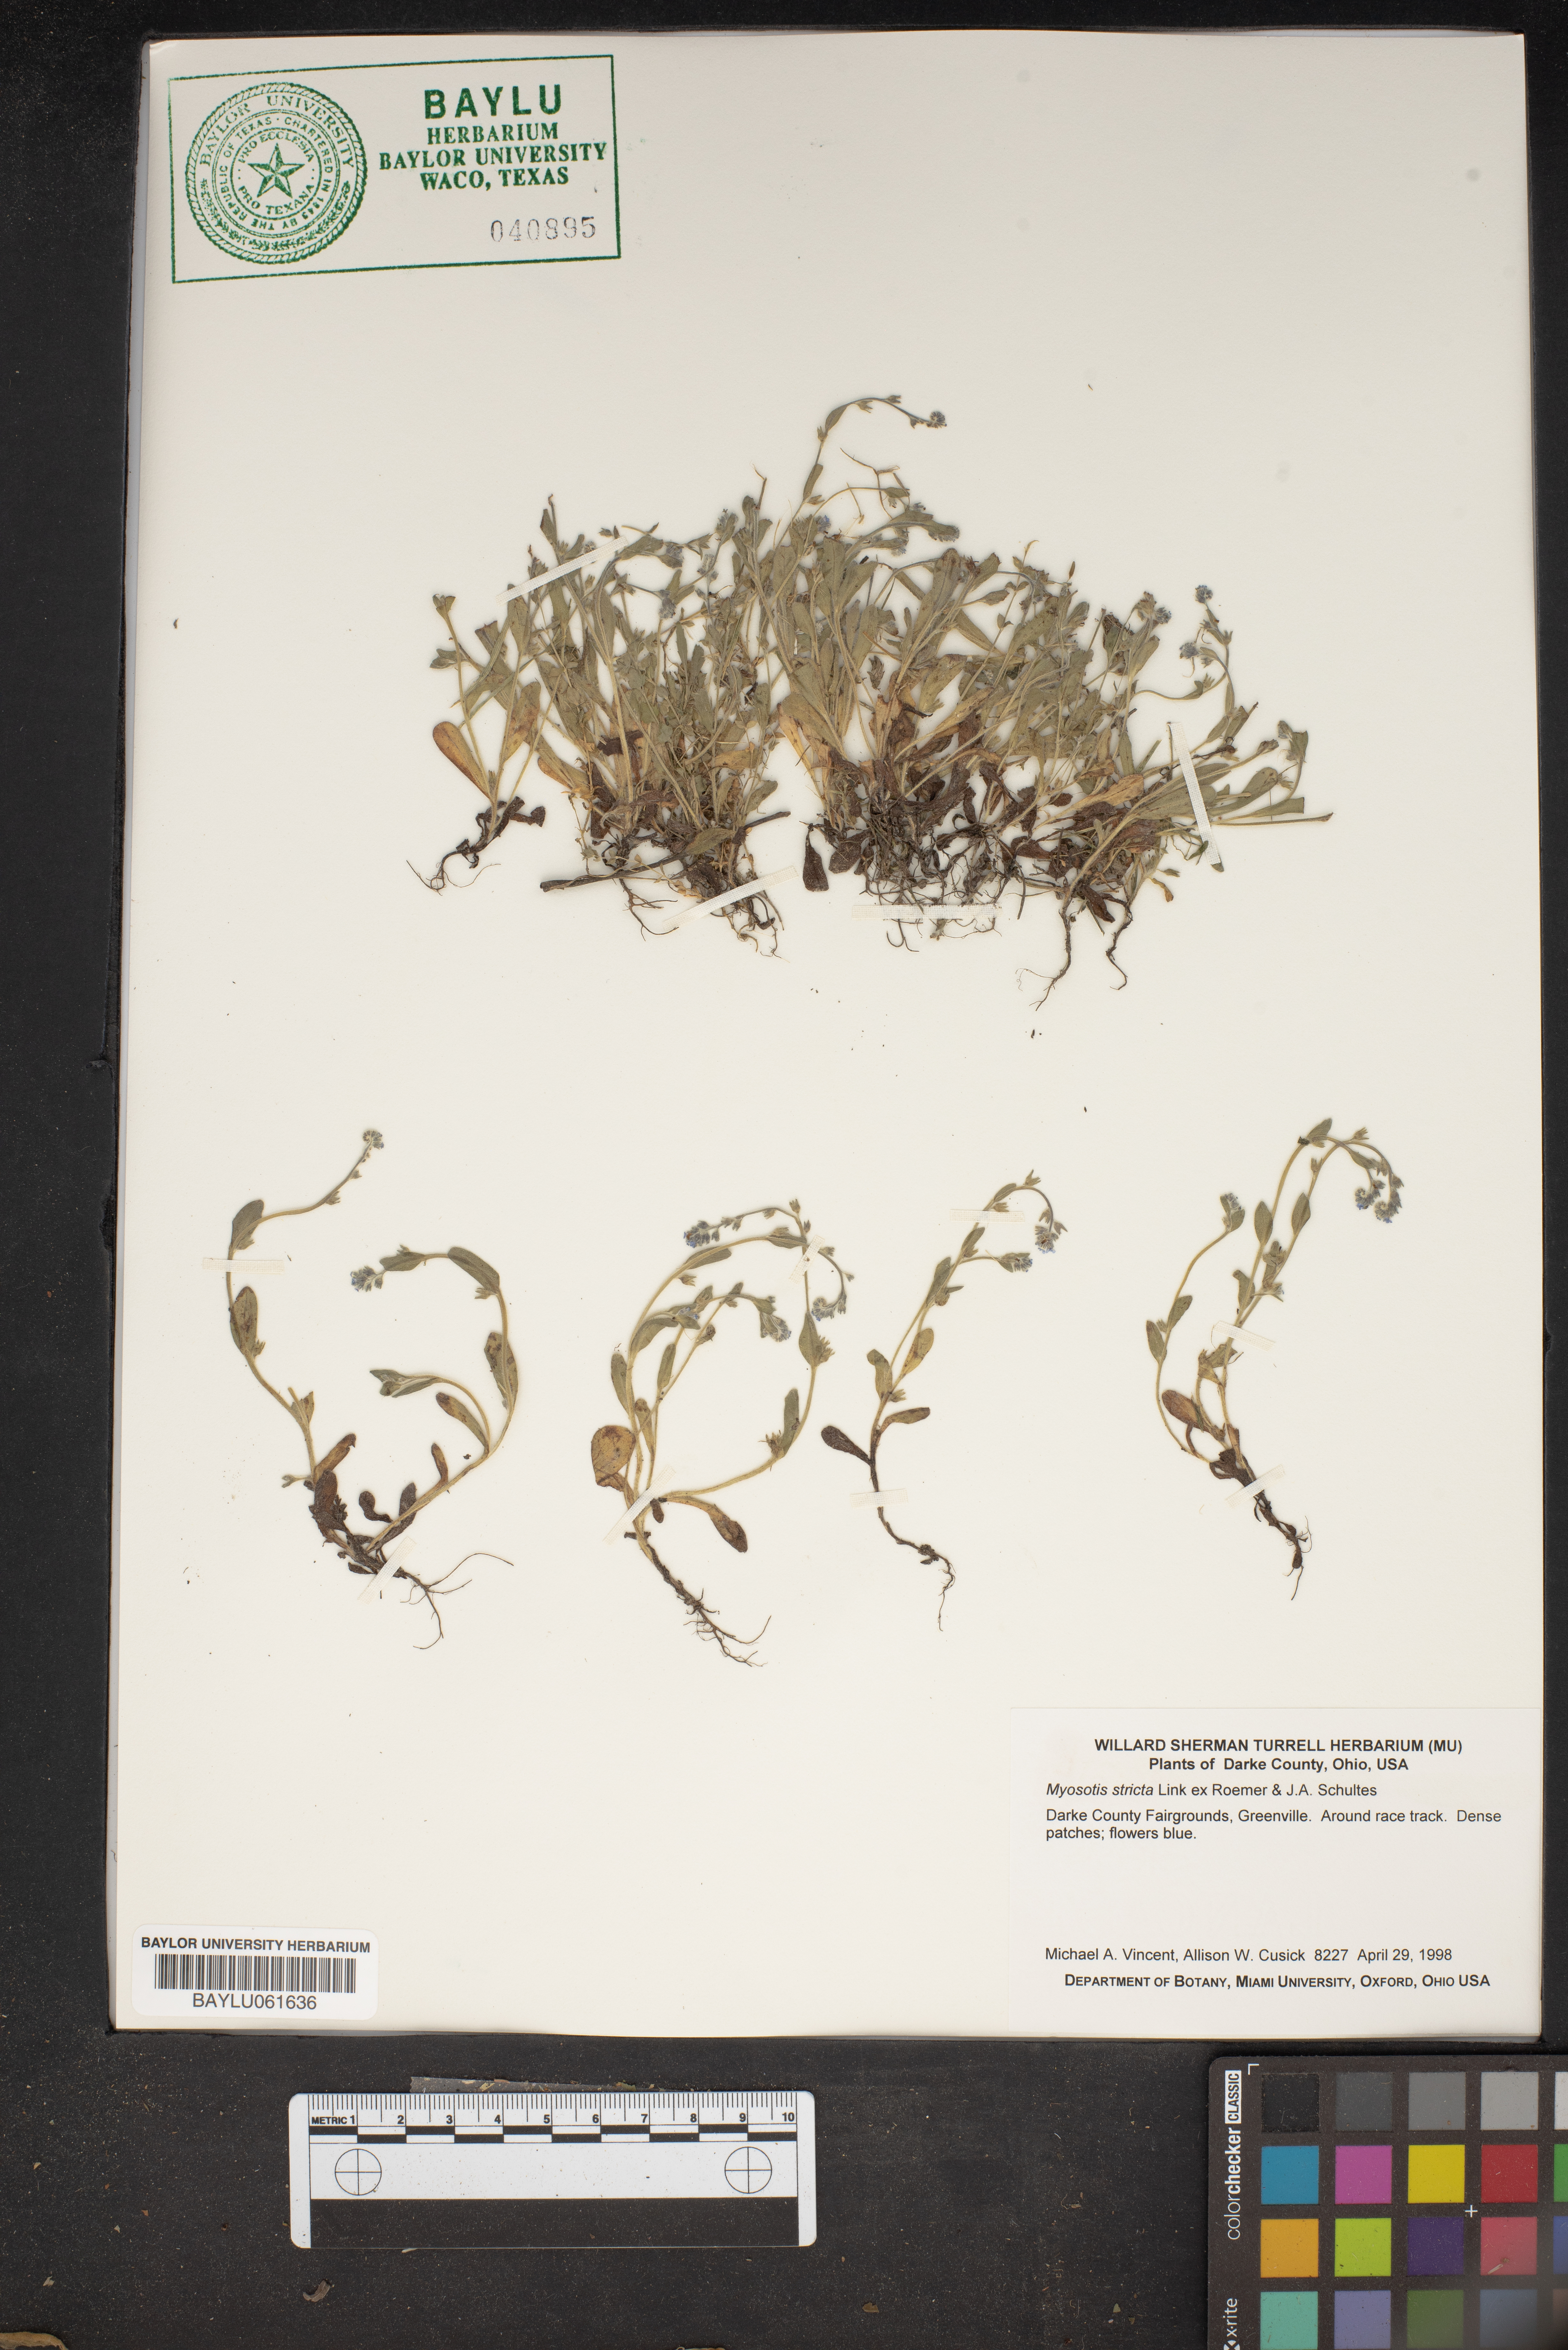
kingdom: Plantae
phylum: Tracheophyta
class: Magnoliopsida
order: Boraginales
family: Boraginaceae
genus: Myosotis
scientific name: Myosotis stricta
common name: Strict forget-me-not
